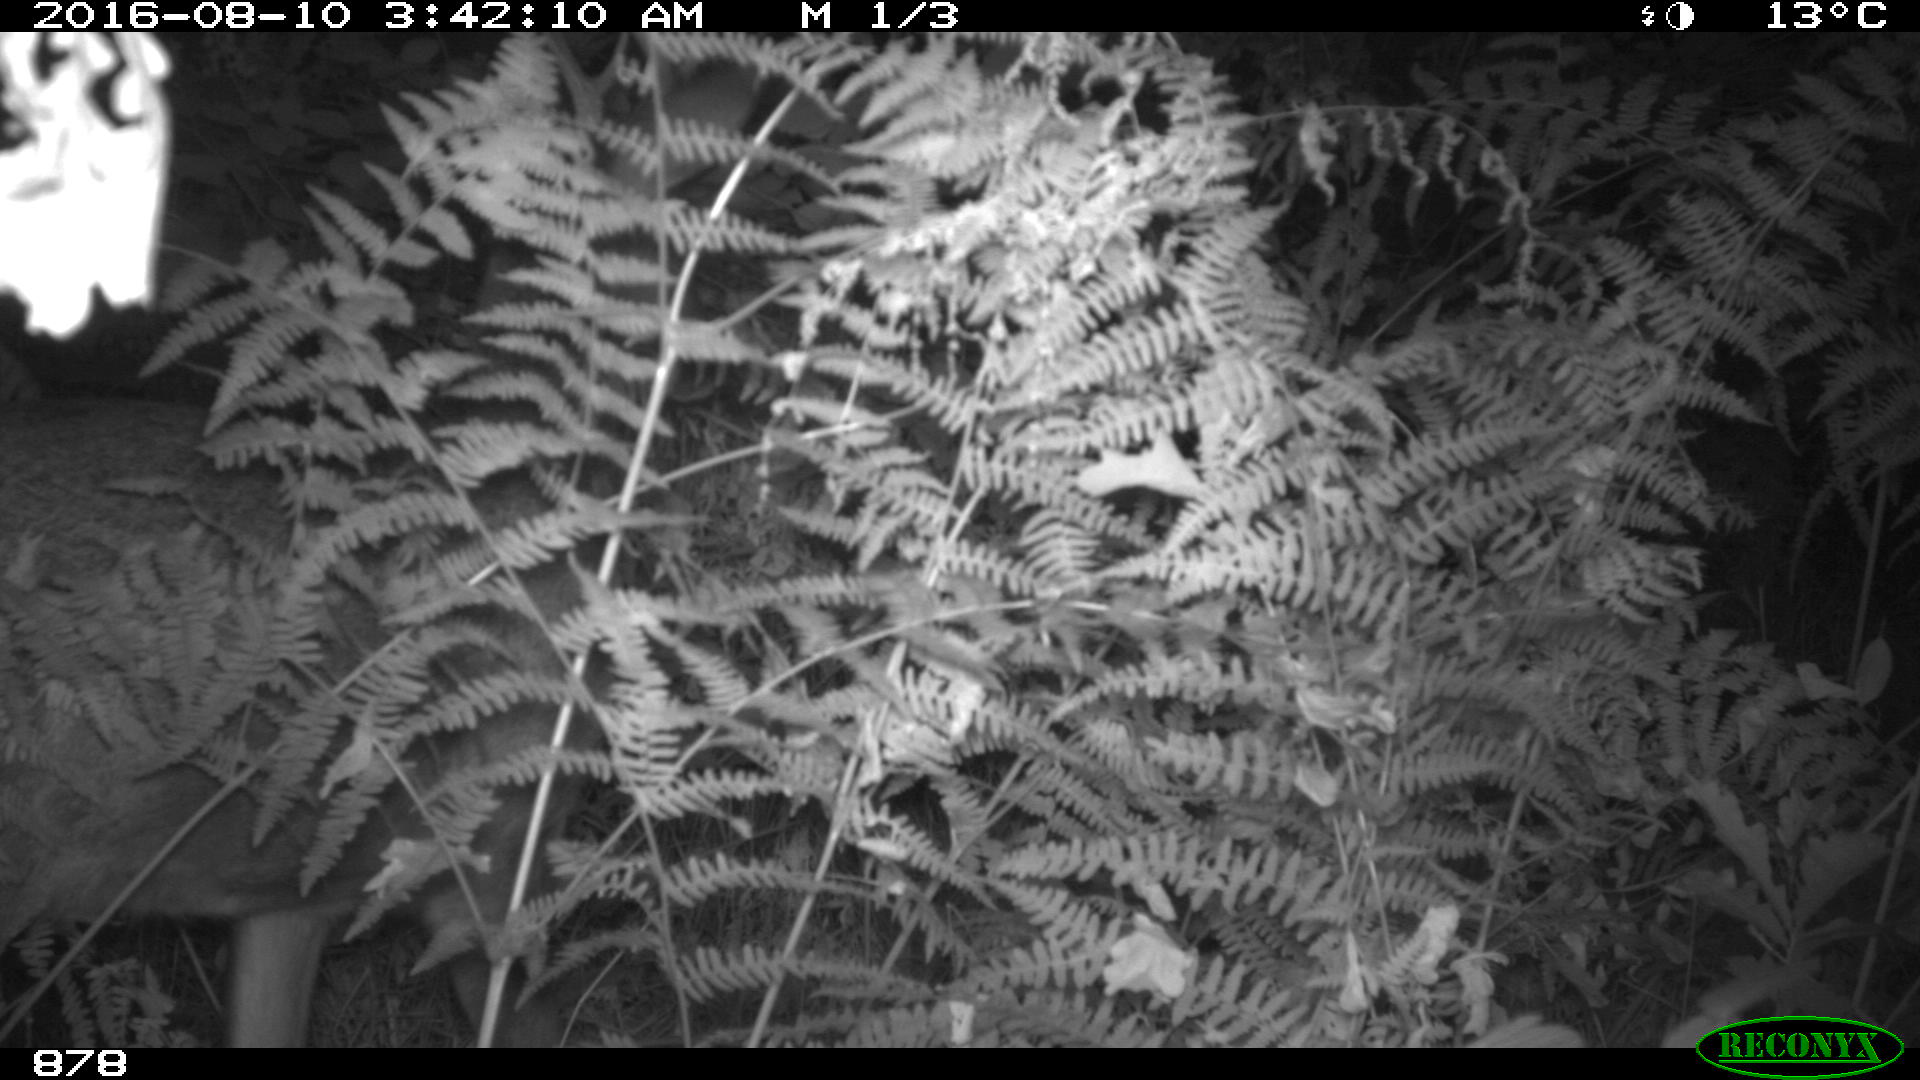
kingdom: Animalia
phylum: Chordata
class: Mammalia
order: Artiodactyla
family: Cervidae
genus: Capreolus
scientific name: Capreolus capreolus
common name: Western roe deer
